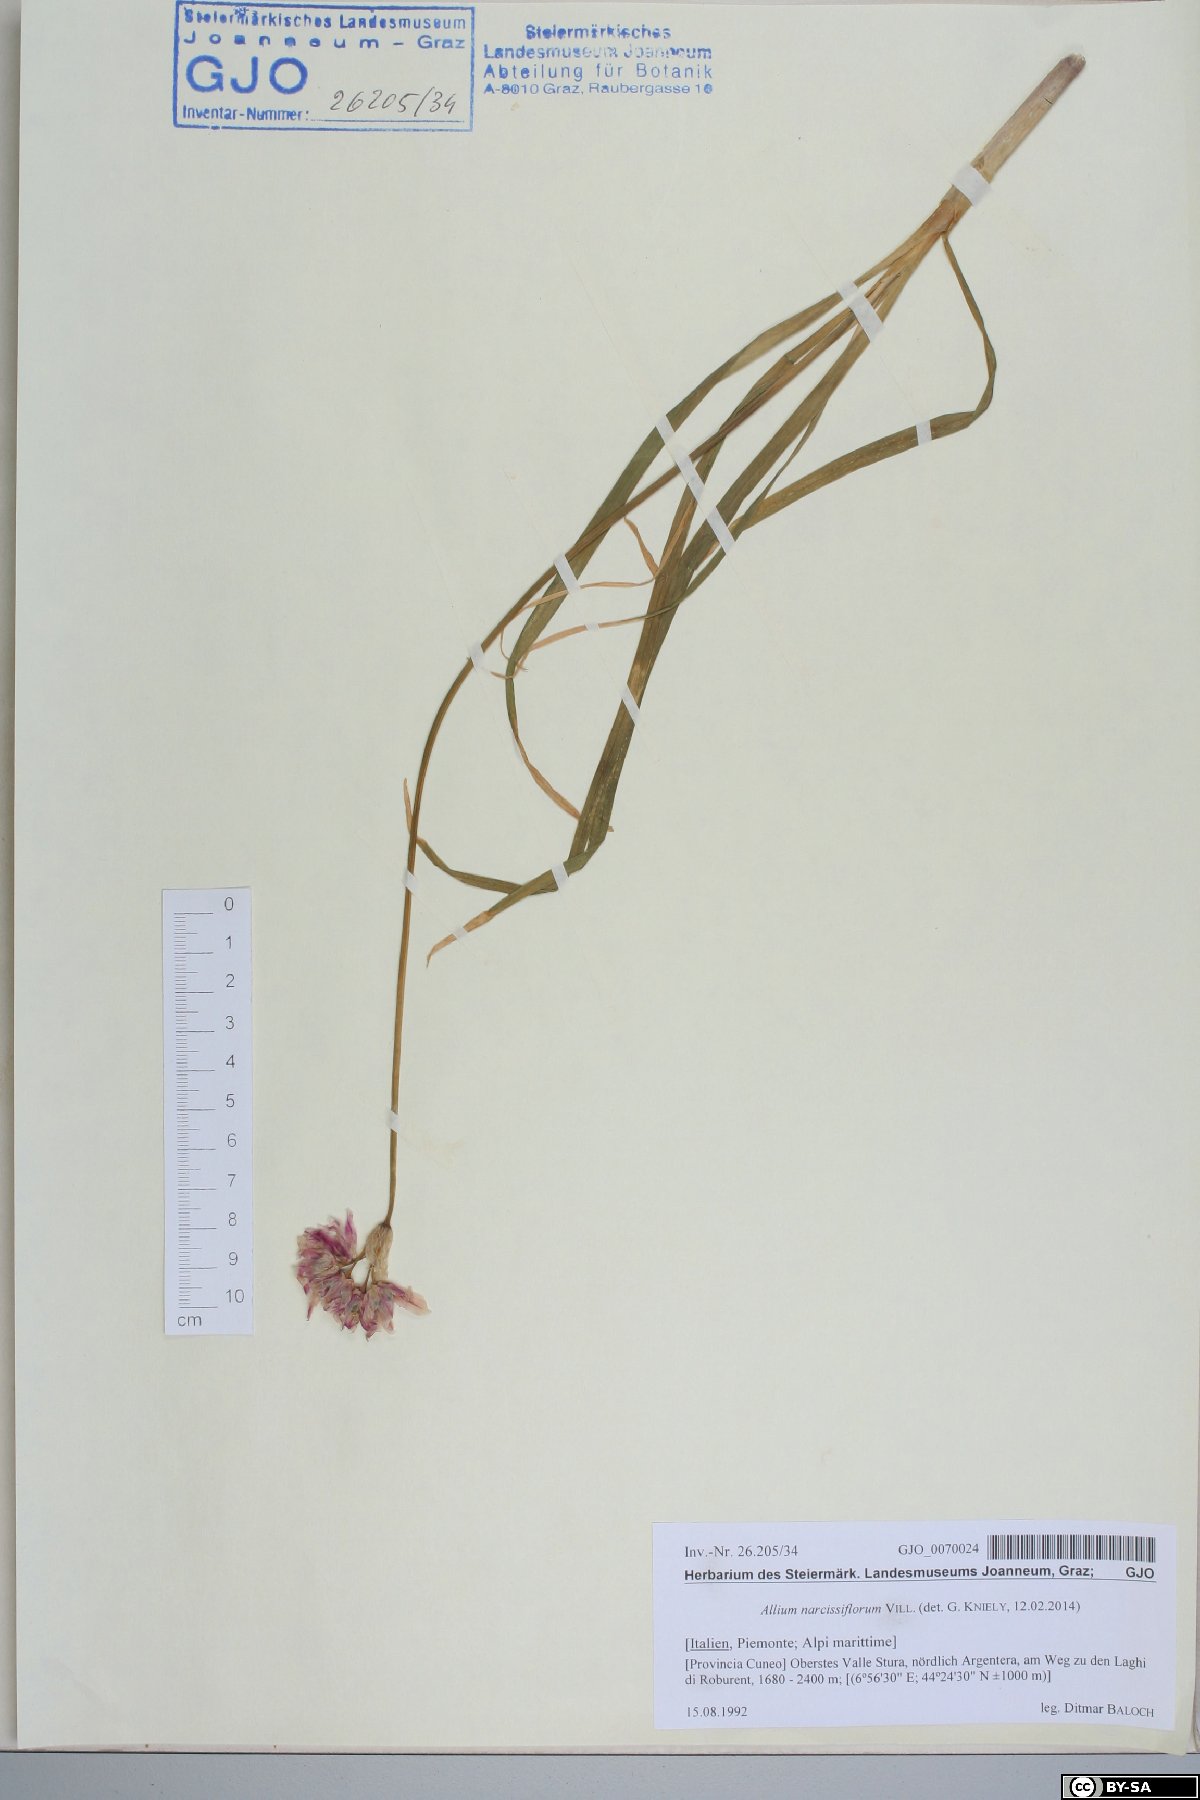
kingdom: Plantae
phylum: Tracheophyta
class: Liliopsida
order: Asparagales
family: Amaryllidaceae
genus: Allium
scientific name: Allium narcissiflorum
